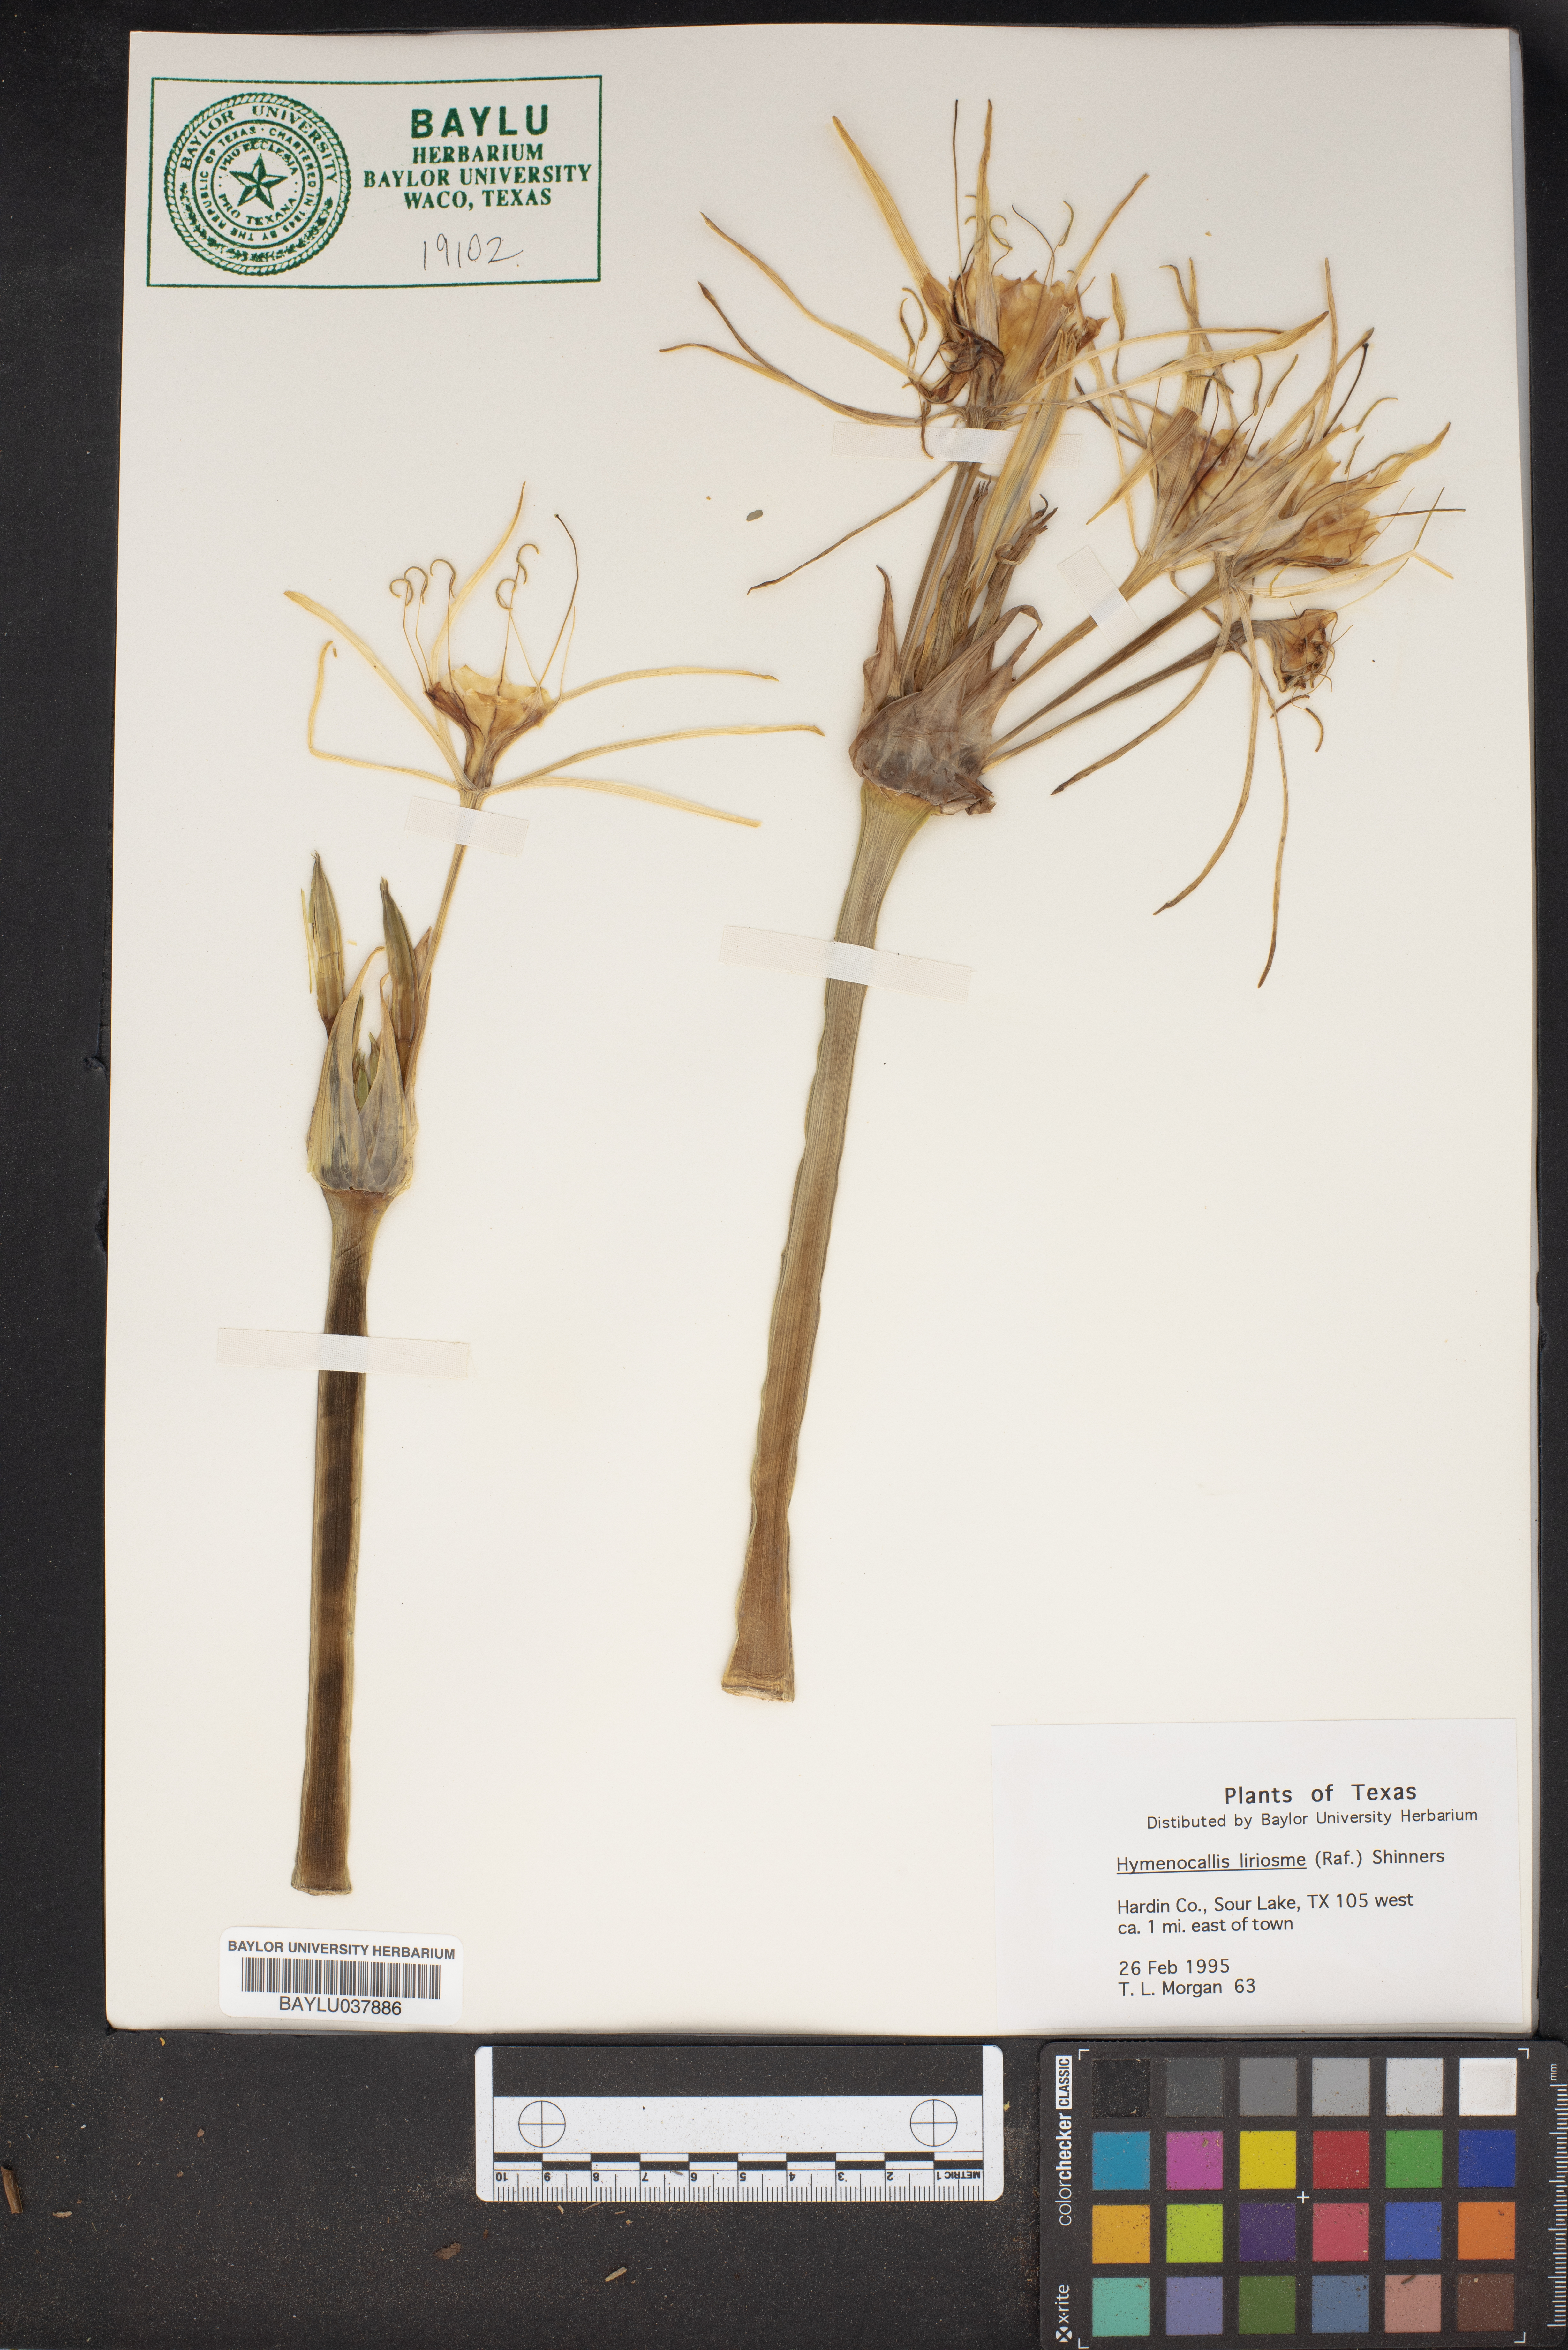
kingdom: Plantae
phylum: Tracheophyta
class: Liliopsida
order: Asparagales
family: Amaryllidaceae
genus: Hymenocallis
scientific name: Hymenocallis liriosme
